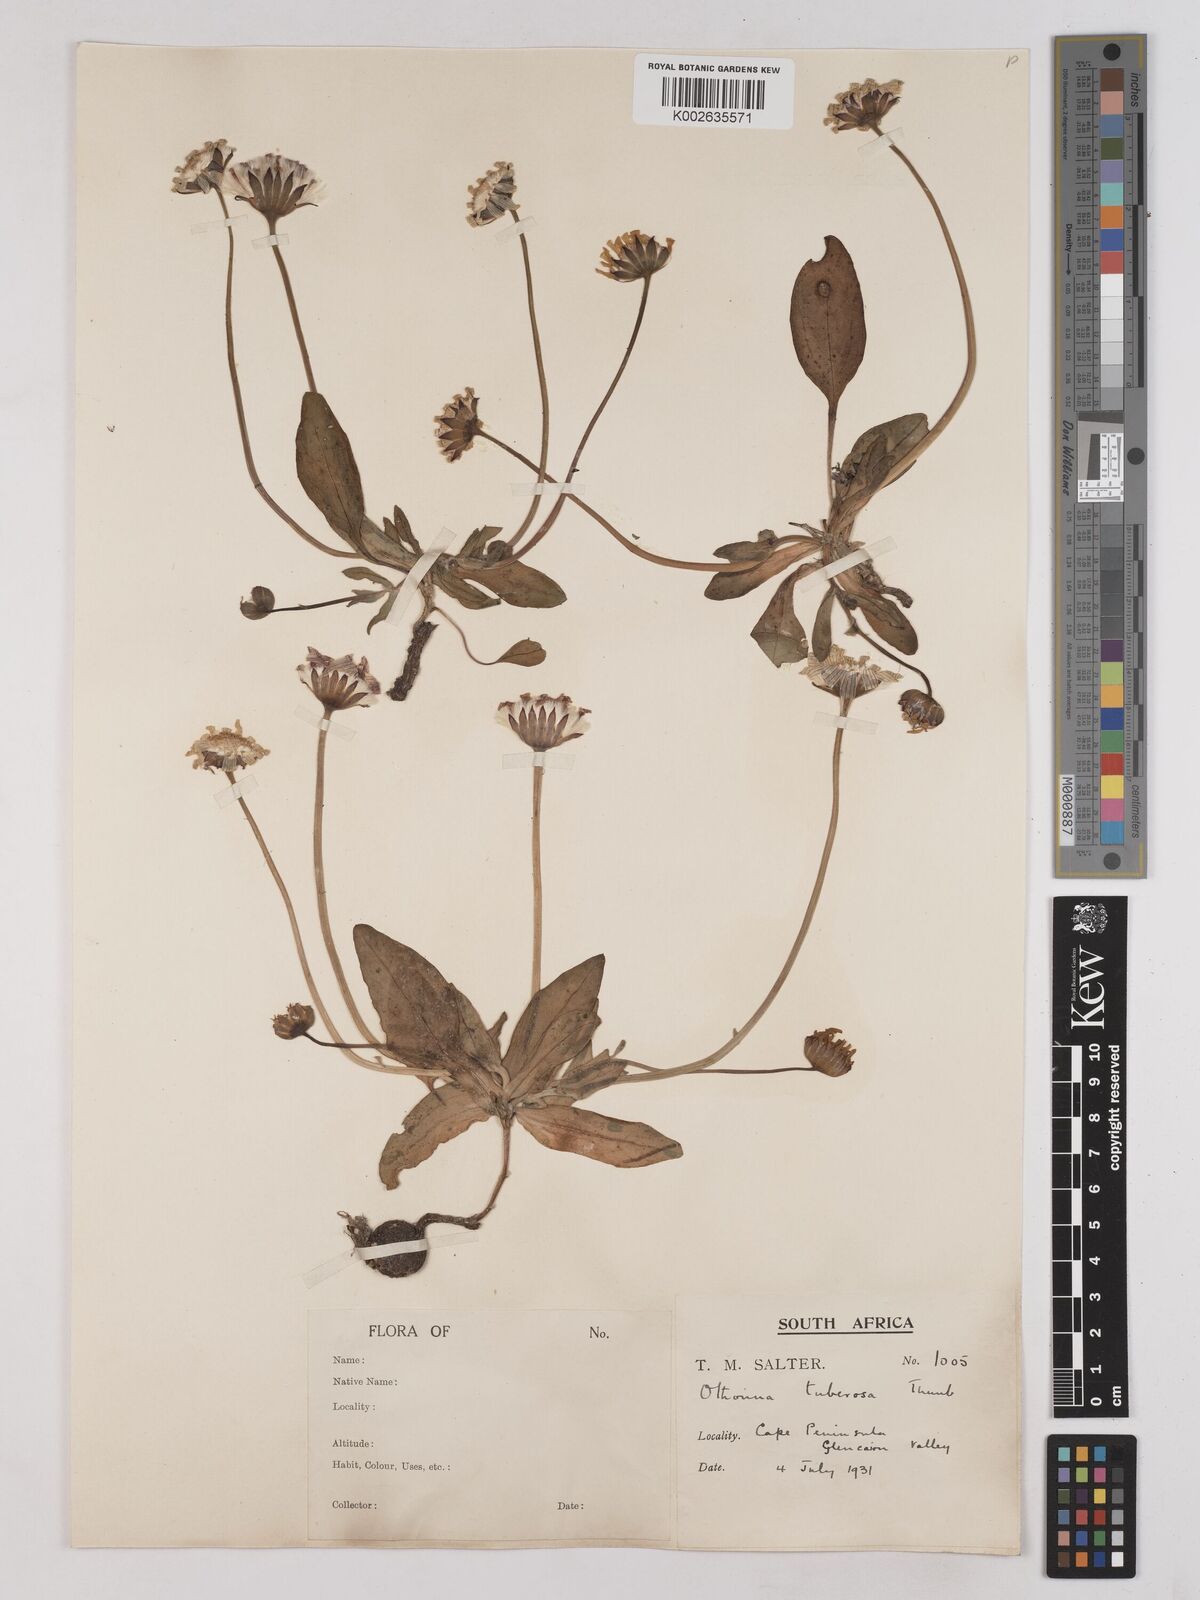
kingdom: Plantae
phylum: Tracheophyta
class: Magnoliopsida
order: Asterales
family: Asteraceae
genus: Othonna
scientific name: Othonna bulbosa
